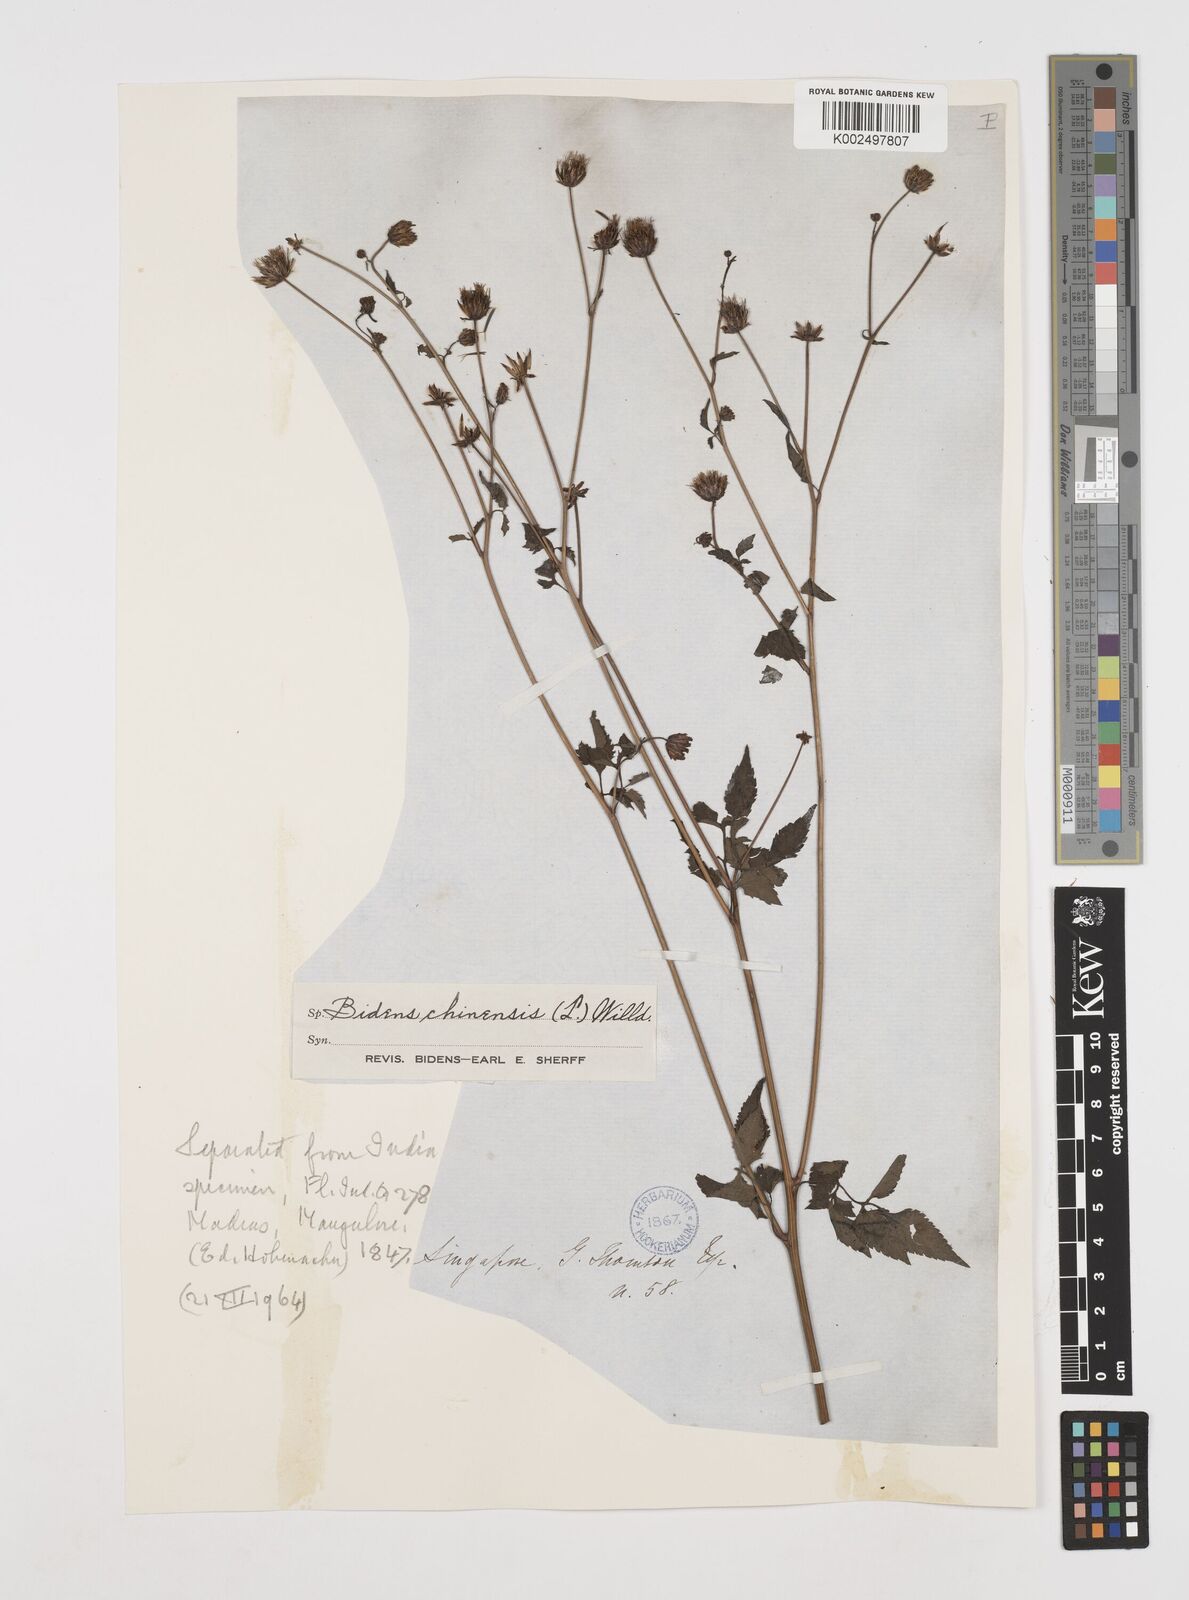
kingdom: Plantae
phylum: Tracheophyta
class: Magnoliopsida
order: Asterales
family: Asteraceae
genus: Bidens
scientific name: Bidens pilosa
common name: Black-jack
